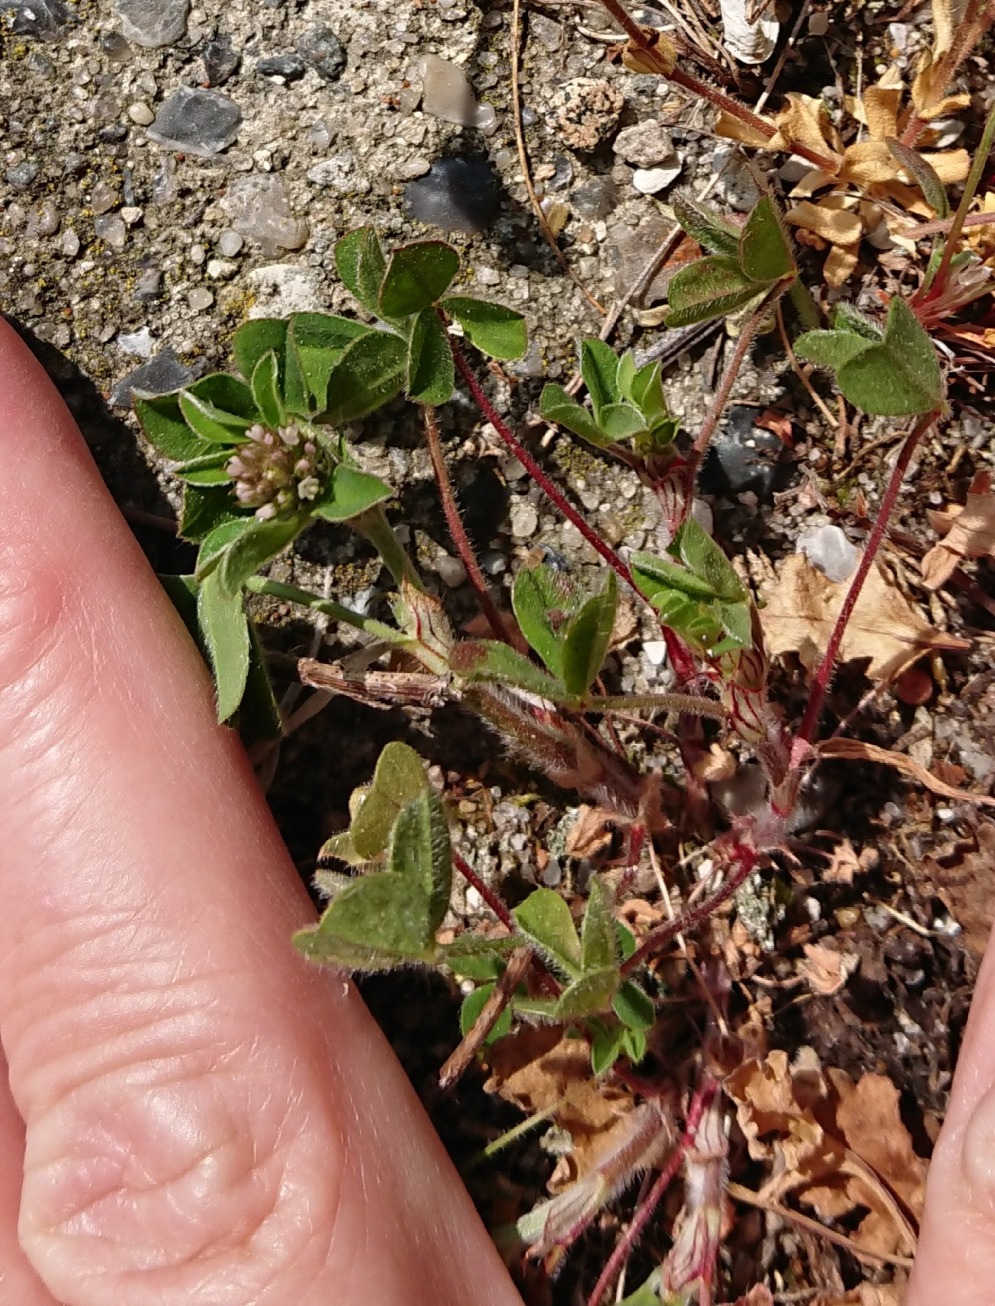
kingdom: Plantae
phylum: Tracheophyta
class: Magnoliopsida
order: Fabales
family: Fabaceae
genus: Trifolium
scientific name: Trifolium striatum
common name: Stribet kløver
